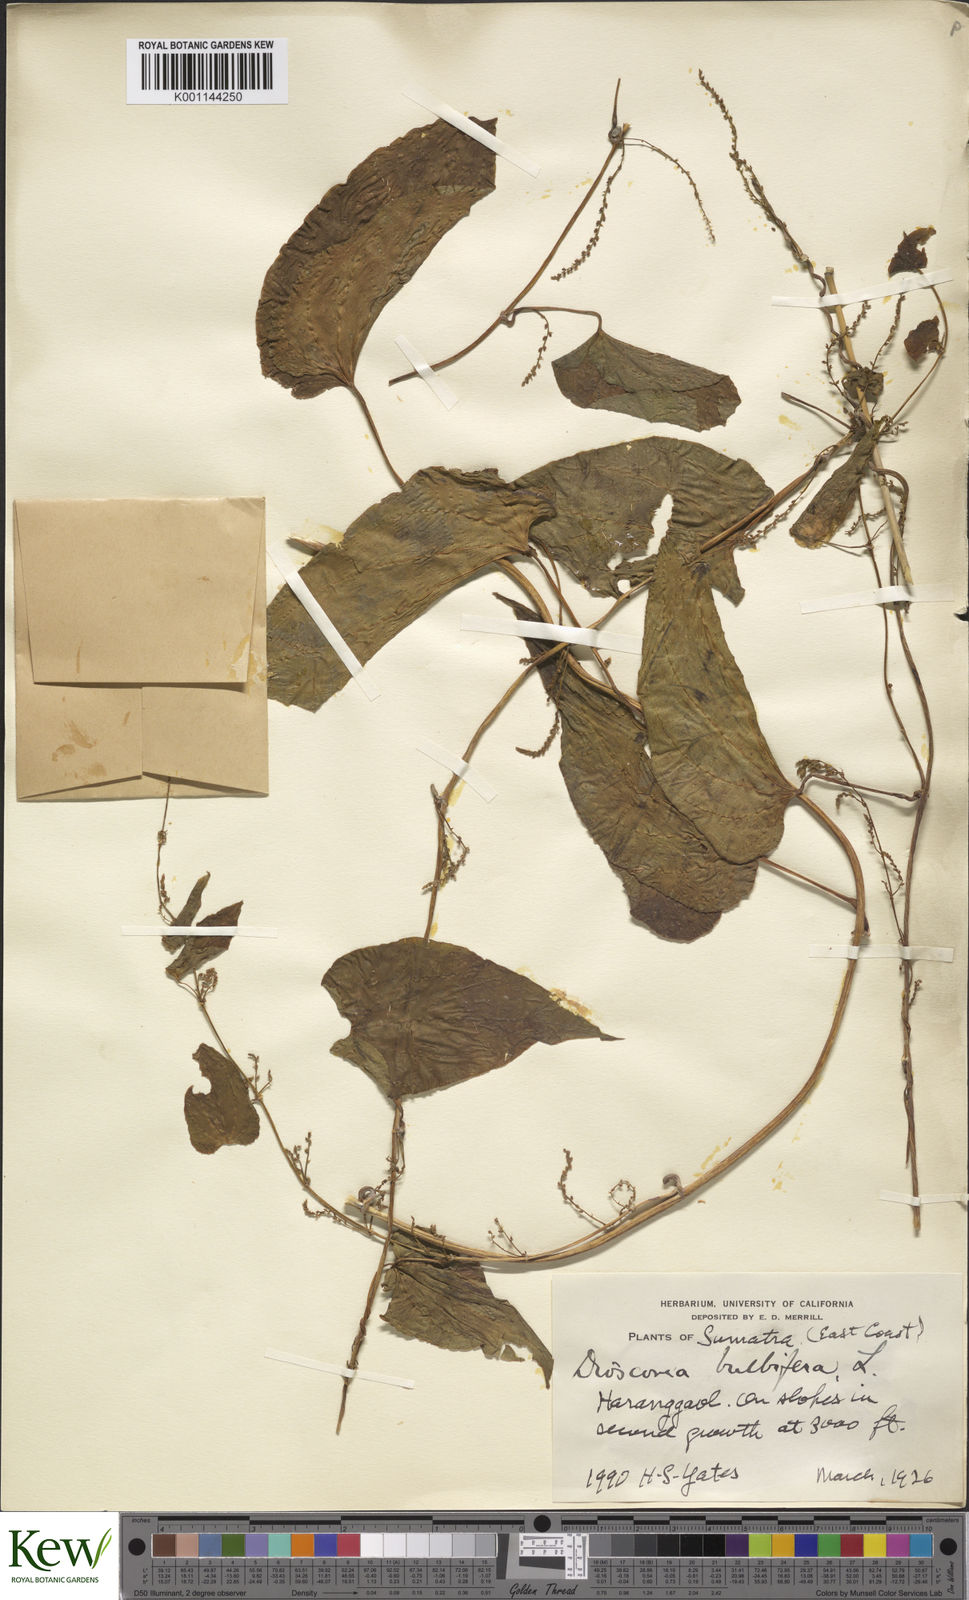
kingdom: Plantae
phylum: Tracheophyta
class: Liliopsida
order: Dioscoreales
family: Dioscoreaceae
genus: Dioscorea
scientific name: Dioscorea bulbifera
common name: Air yam
